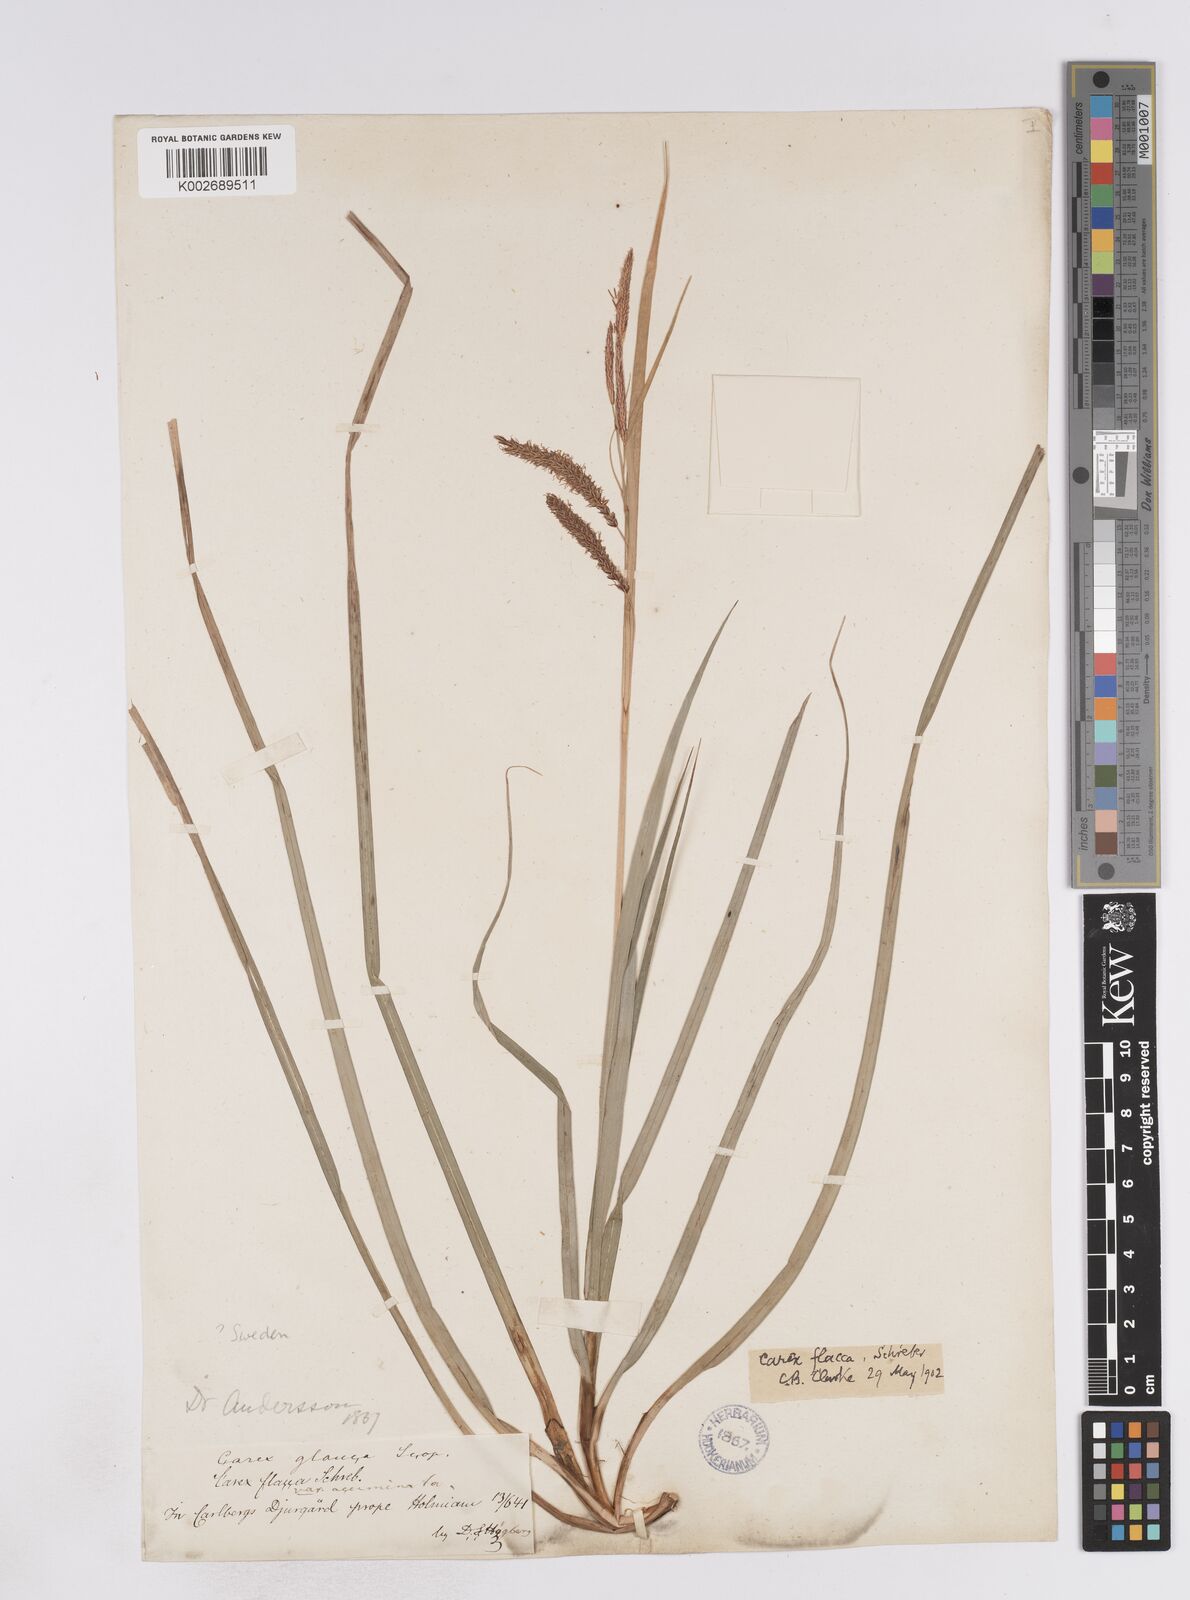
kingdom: Plantae
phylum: Tracheophyta
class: Liliopsida
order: Poales
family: Cyperaceae
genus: Carex
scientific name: Carex flacca
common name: Glaucous sedge
